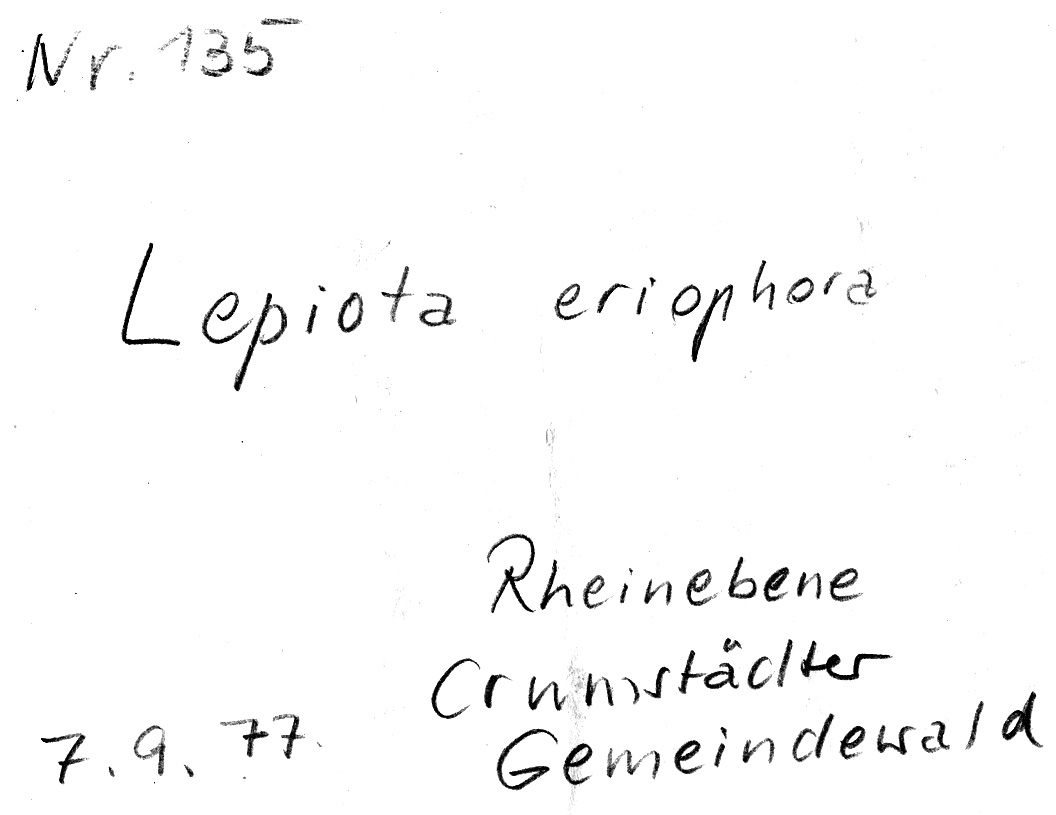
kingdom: Fungi
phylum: Basidiomycota
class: Agaricomycetes
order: Agaricales
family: Agaricaceae
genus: Cystolepiota
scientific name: Cystolepiota eriophora
